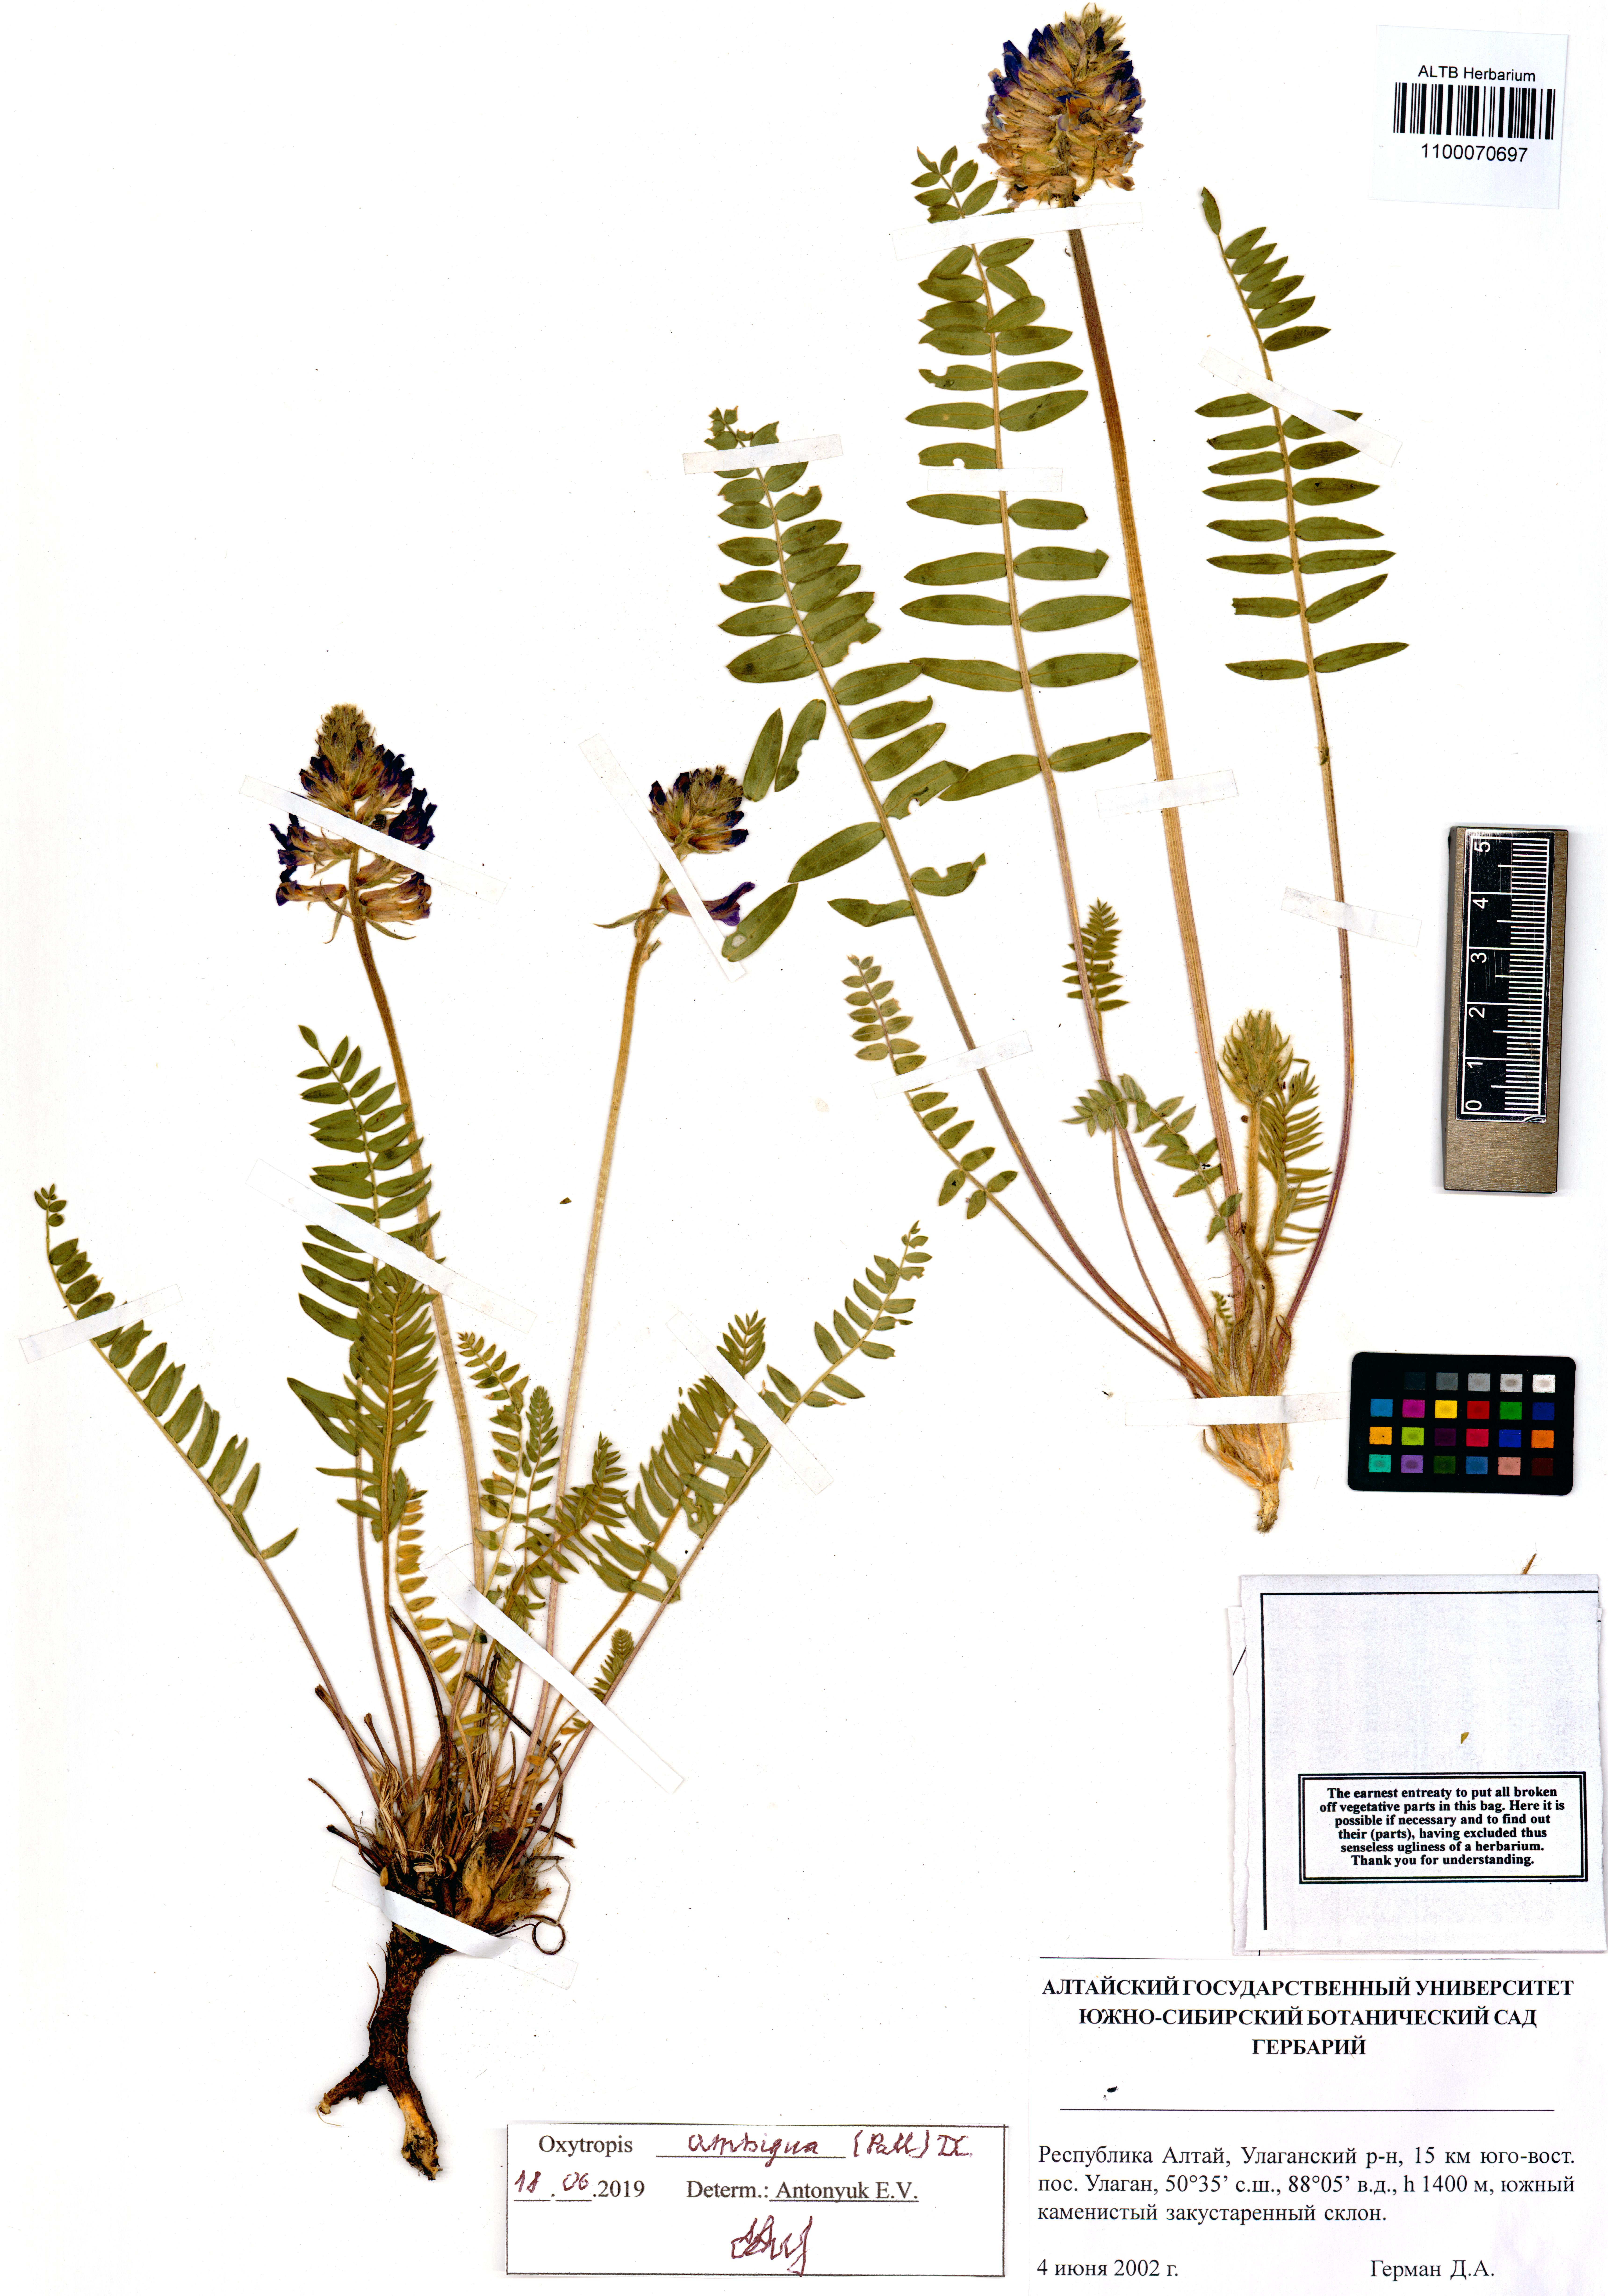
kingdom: Plantae
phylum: Tracheophyta
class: Magnoliopsida
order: Fabales
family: Fabaceae
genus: Oxytropis
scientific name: Oxytropis ambigua
